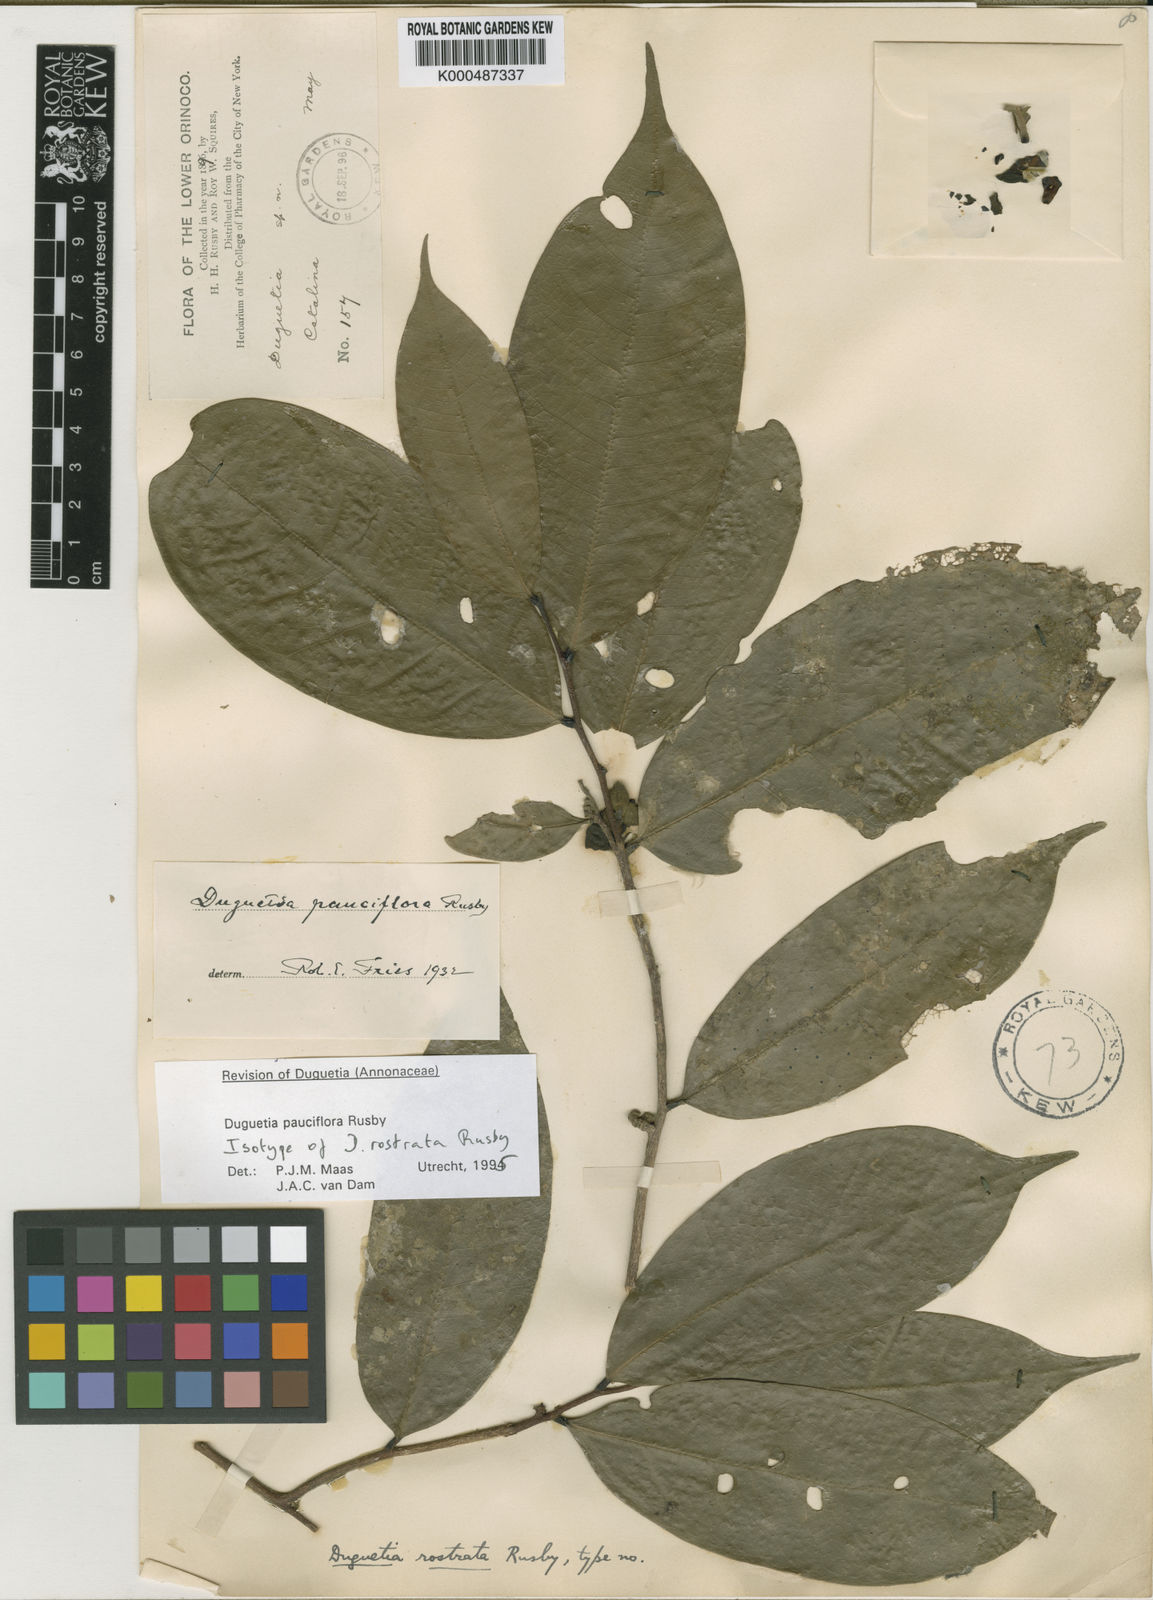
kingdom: Plantae
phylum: Tracheophyta
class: Magnoliopsida
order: Magnoliales
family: Annonaceae
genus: Duguetia
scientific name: Duguetia pauciflora
